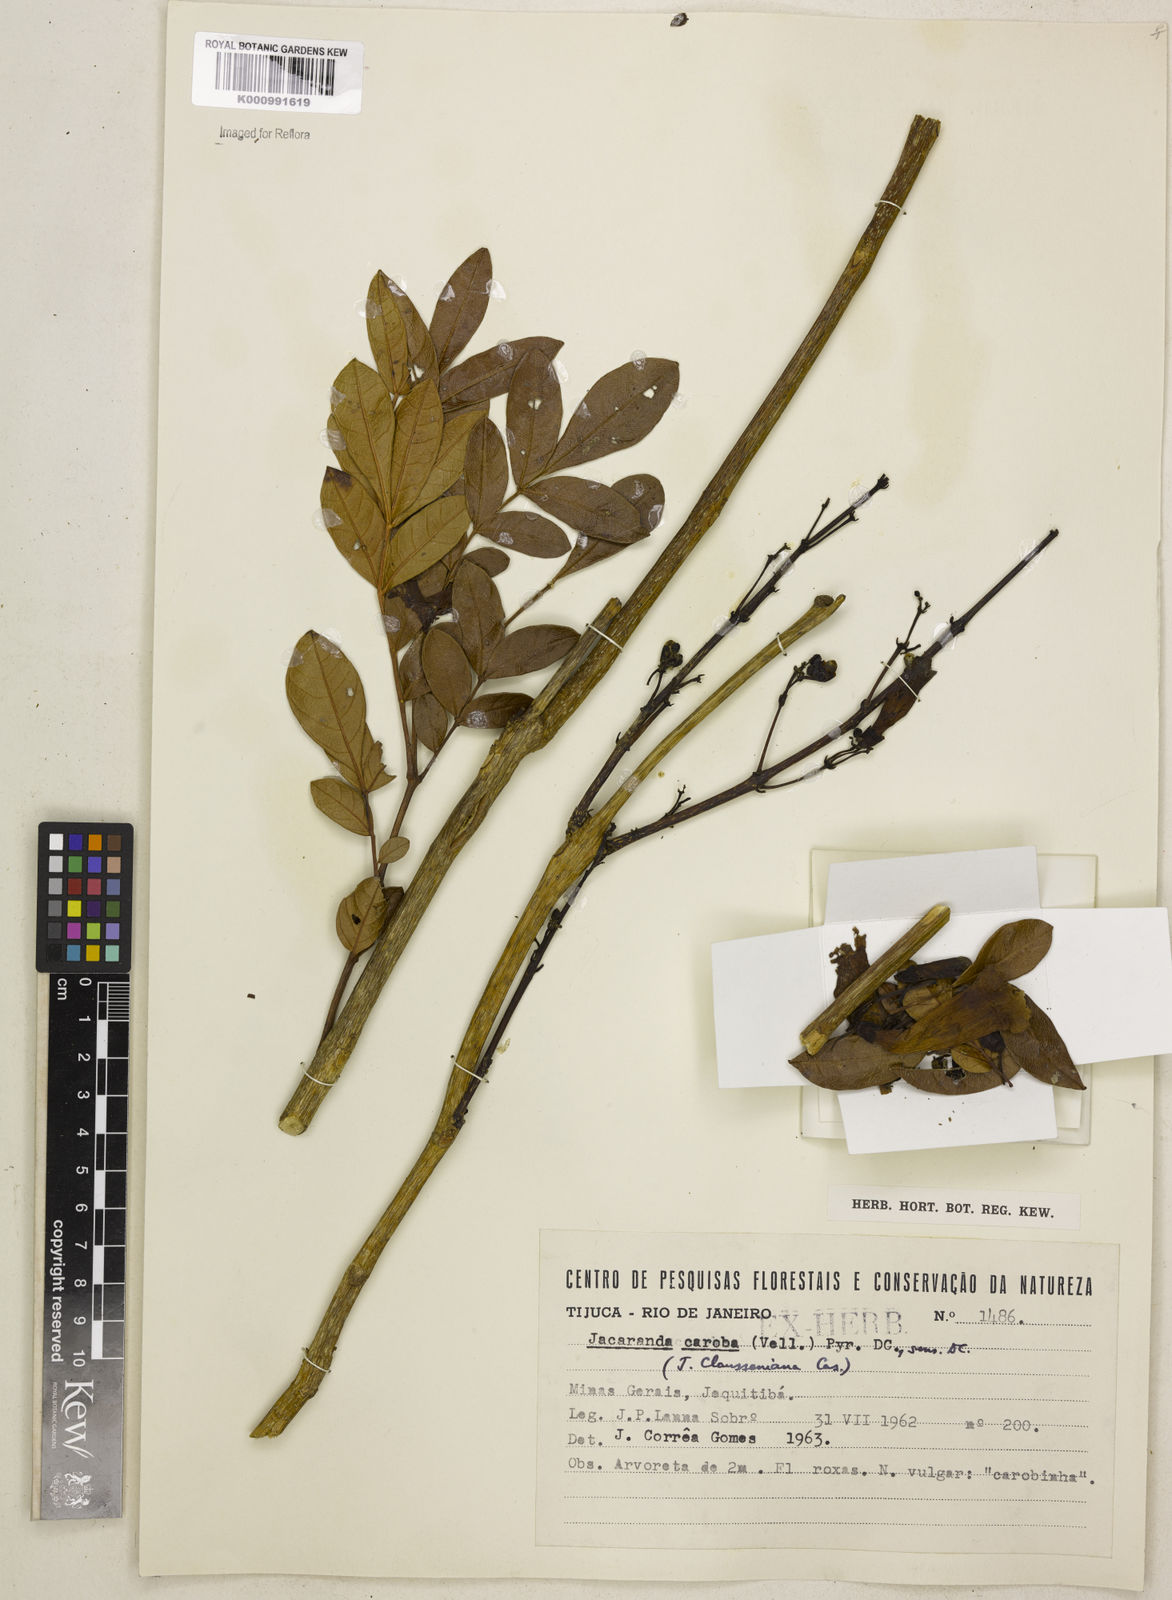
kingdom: Plantae
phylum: Tracheophyta
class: Magnoliopsida
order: Lamiales
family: Bignoniaceae
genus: Jacaranda
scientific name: Jacaranda caroba
